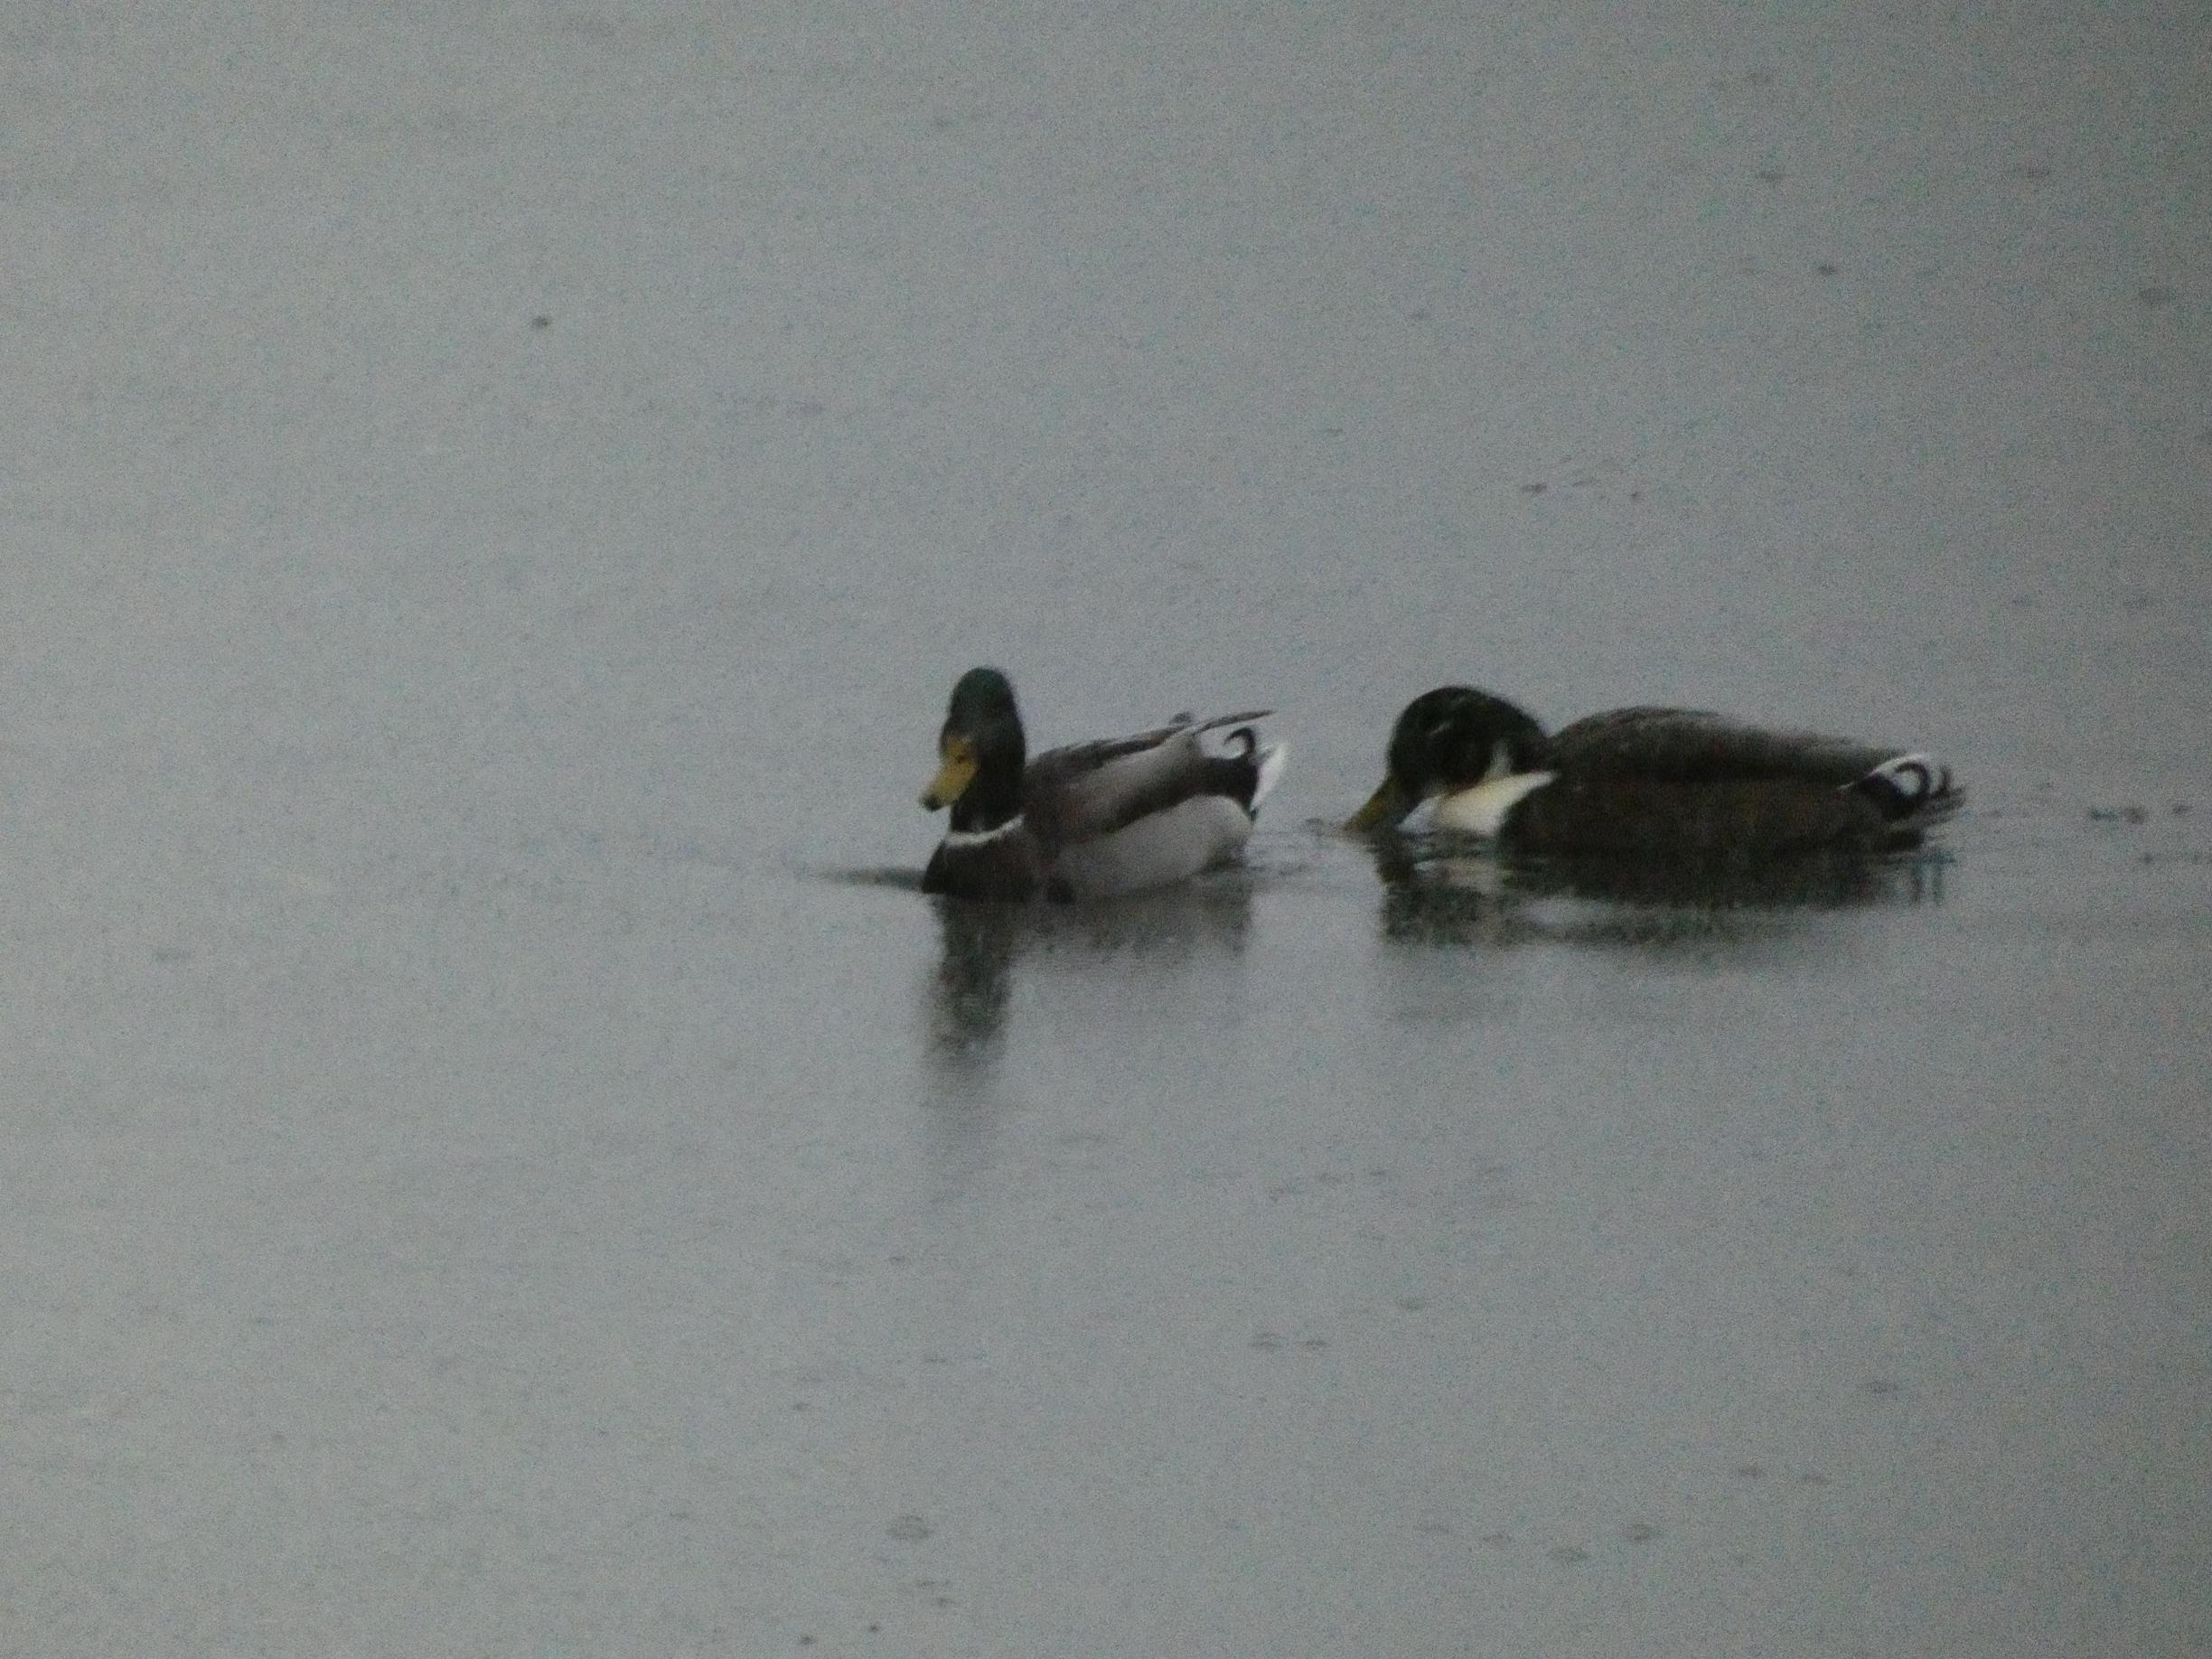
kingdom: Animalia
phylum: Chordata
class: Aves
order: Anseriformes
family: Anatidae
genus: Anas
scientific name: Anas platyrhynchos
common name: Gråand
